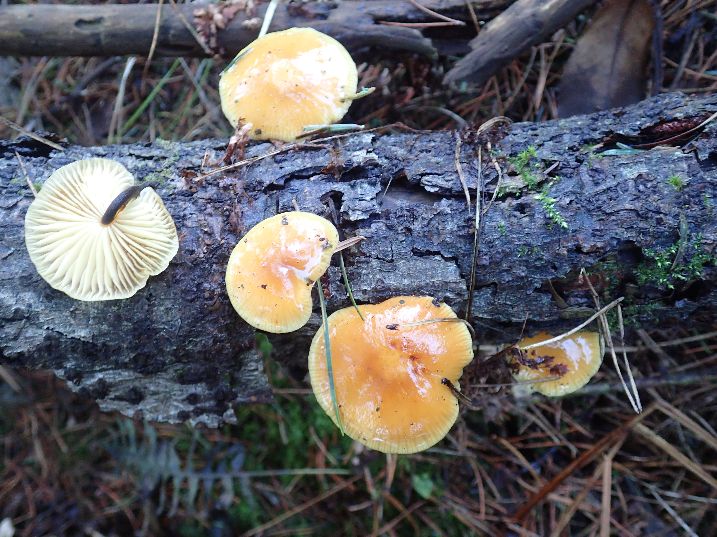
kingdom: Fungi
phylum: Basidiomycota
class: Agaricomycetes
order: Agaricales
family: Physalacriaceae
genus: Flammulina
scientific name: Flammulina elastica
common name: pile-fløjlsfod
